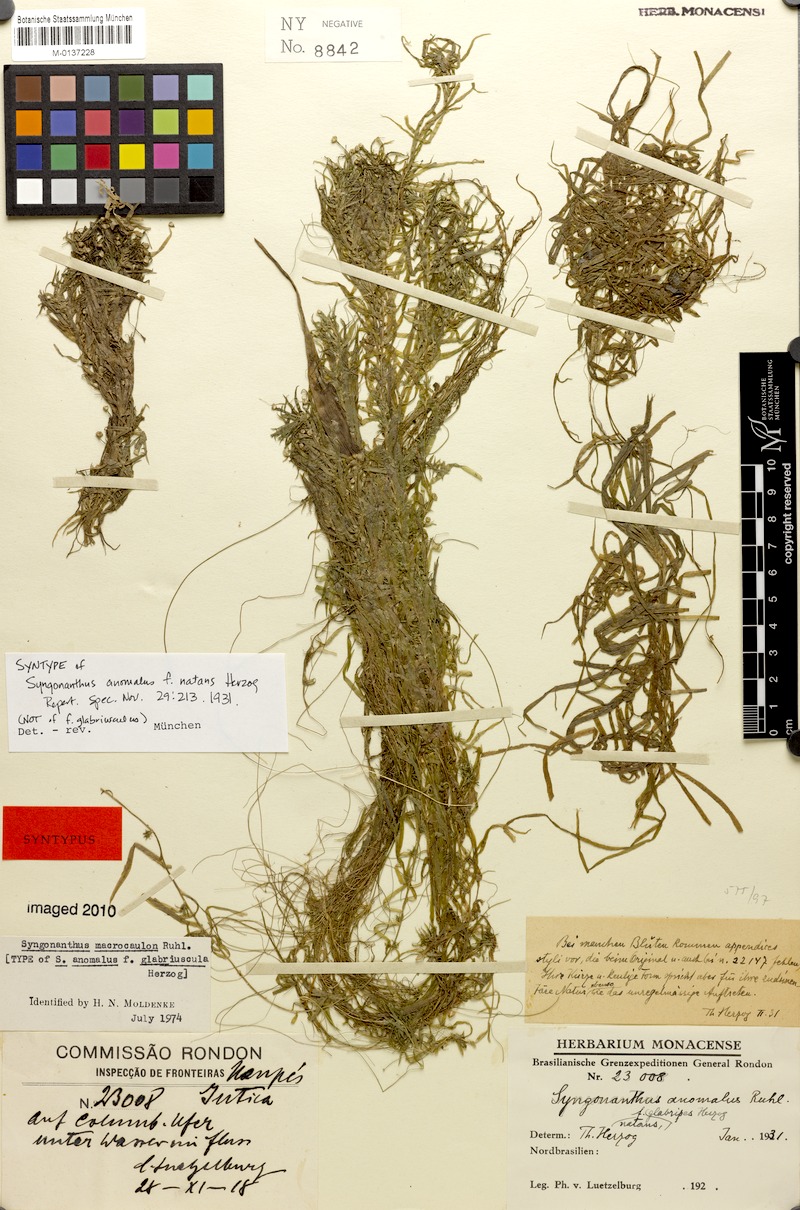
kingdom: Plantae
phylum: Tracheophyta
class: Liliopsida
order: Poales
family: Eriocaulaceae
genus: Syngonanthus
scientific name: Syngonanthus anomalus
